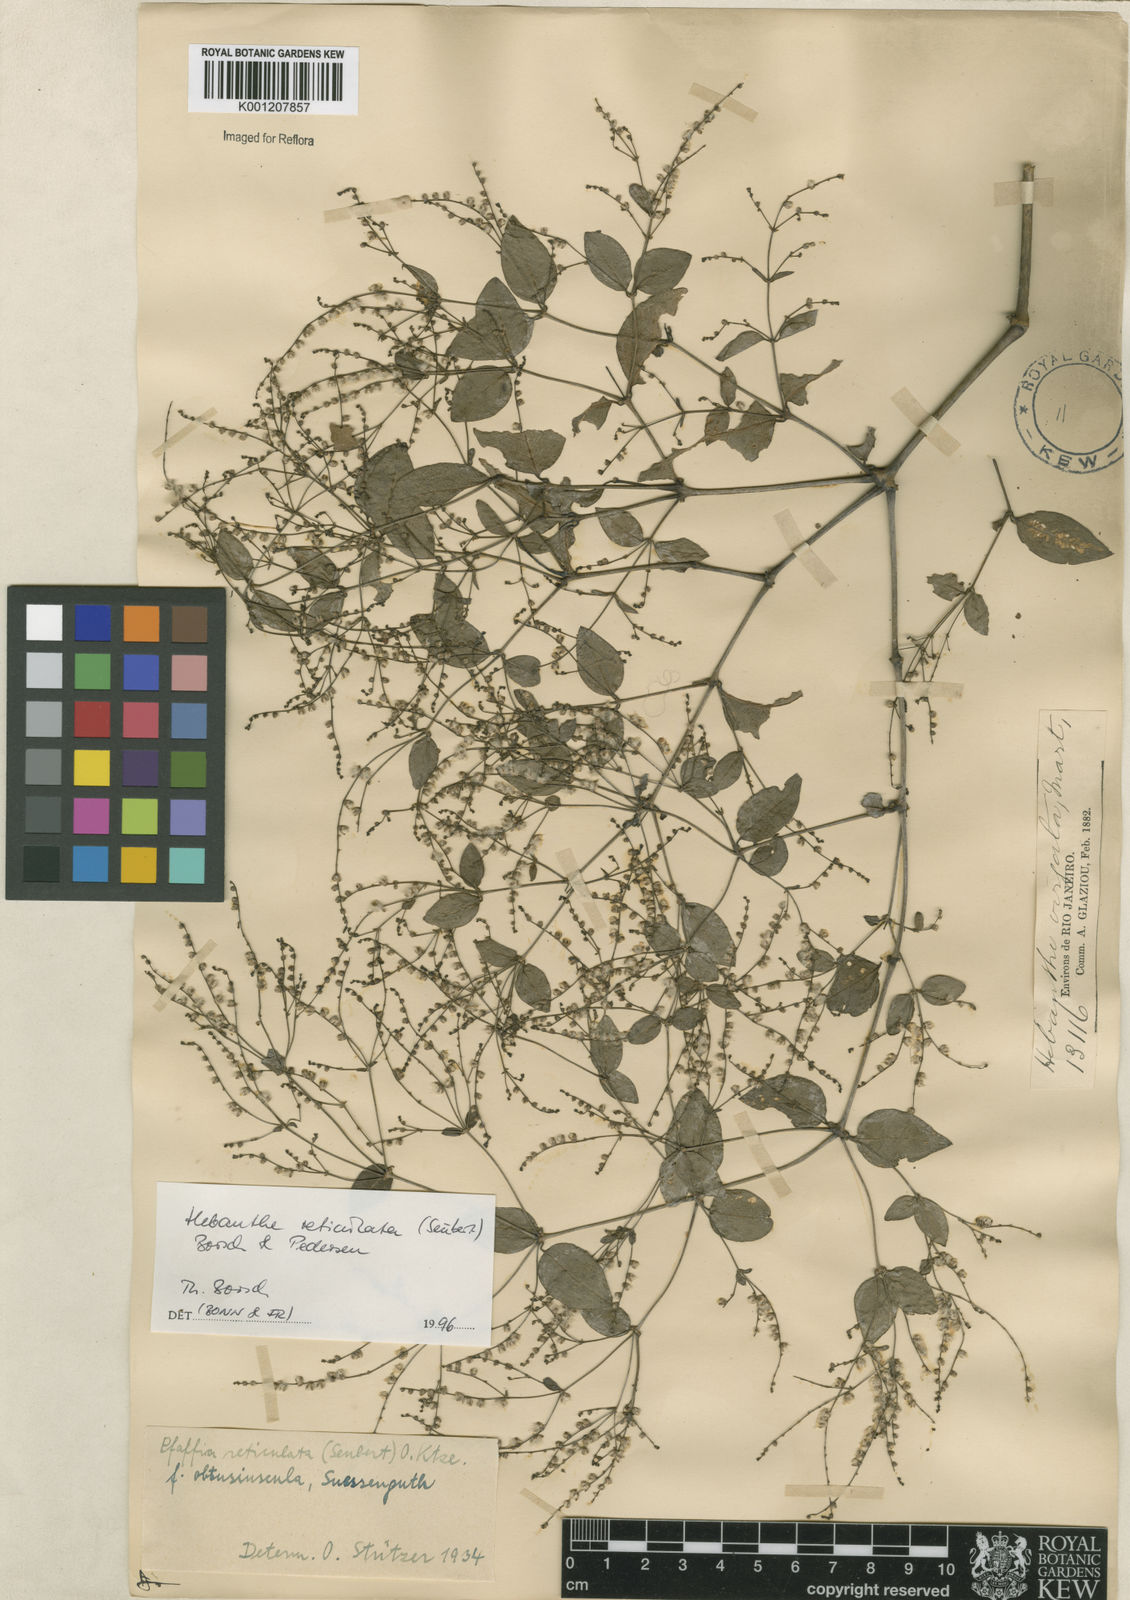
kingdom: Plantae
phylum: Tracheophyta
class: Magnoliopsida
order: Caryophyllales
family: Amaranthaceae
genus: Hebanthe
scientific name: Hebanthe reticulata
